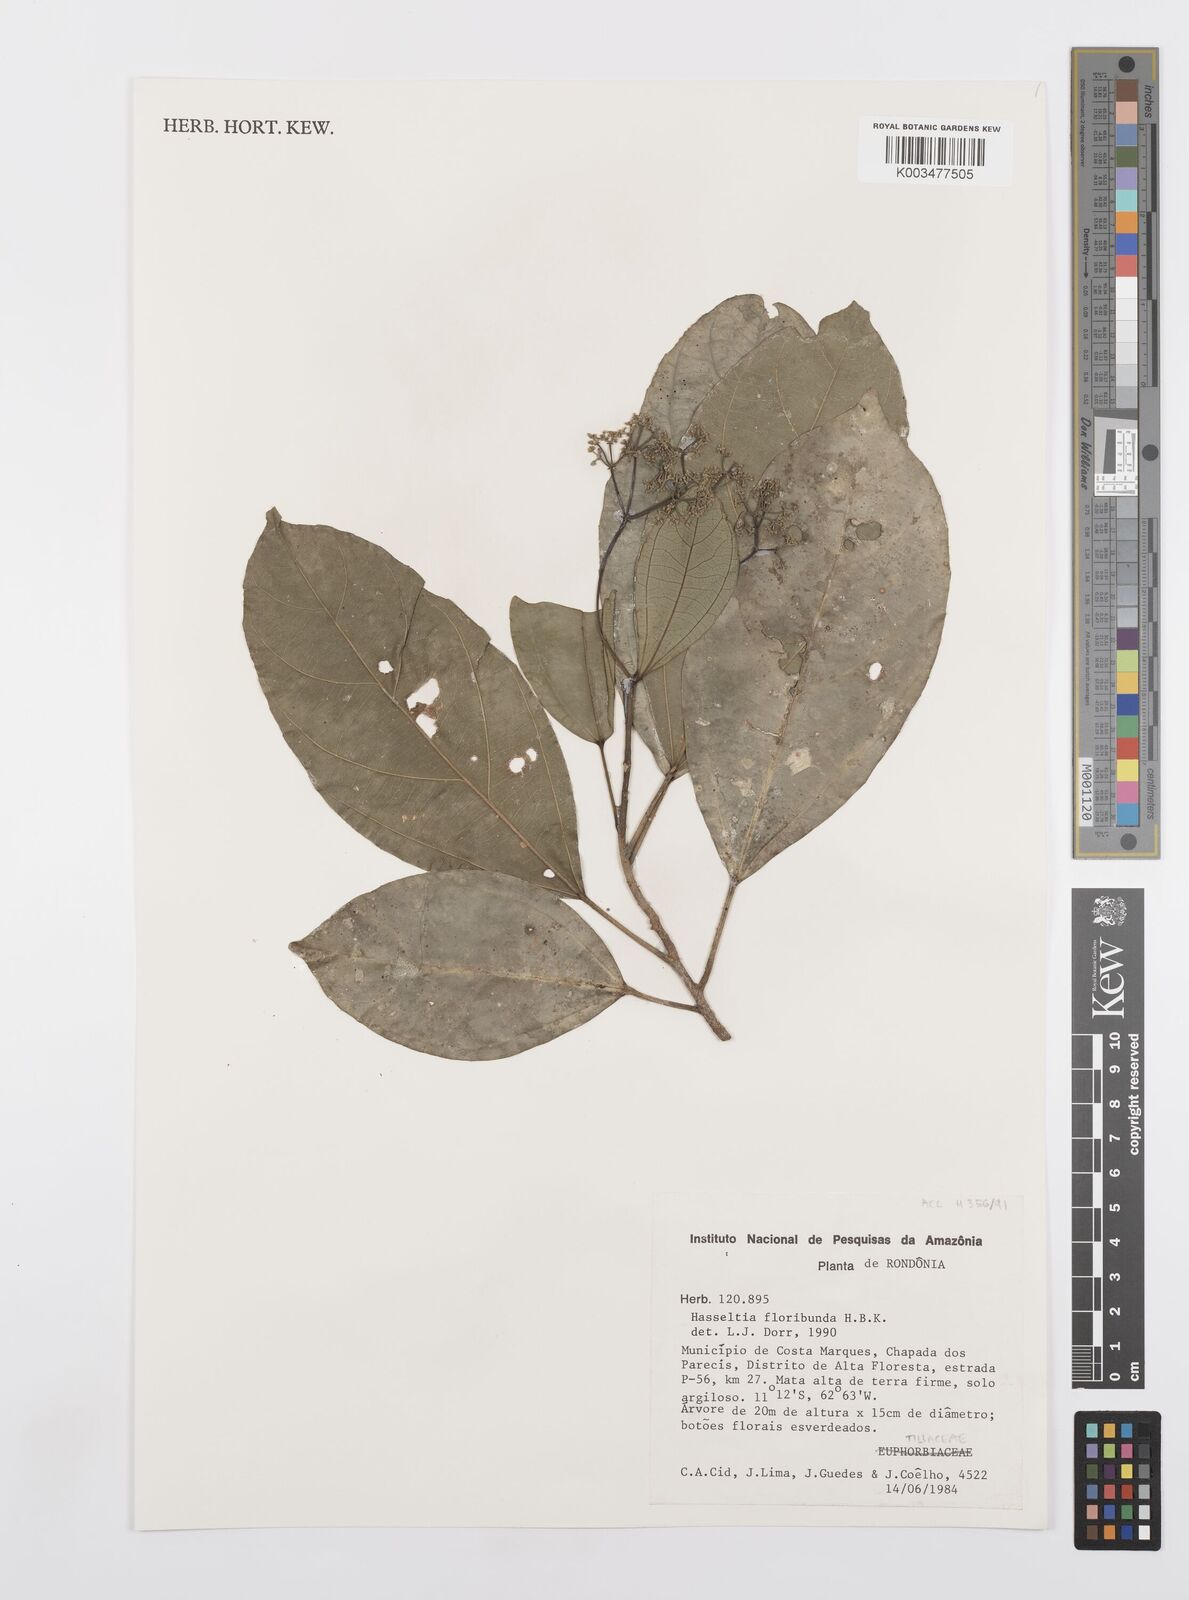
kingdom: Plantae
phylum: Tracheophyta
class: Magnoliopsida
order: Malpighiales
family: Salicaceae
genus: Hasseltia
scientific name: Hasseltia floribunda
